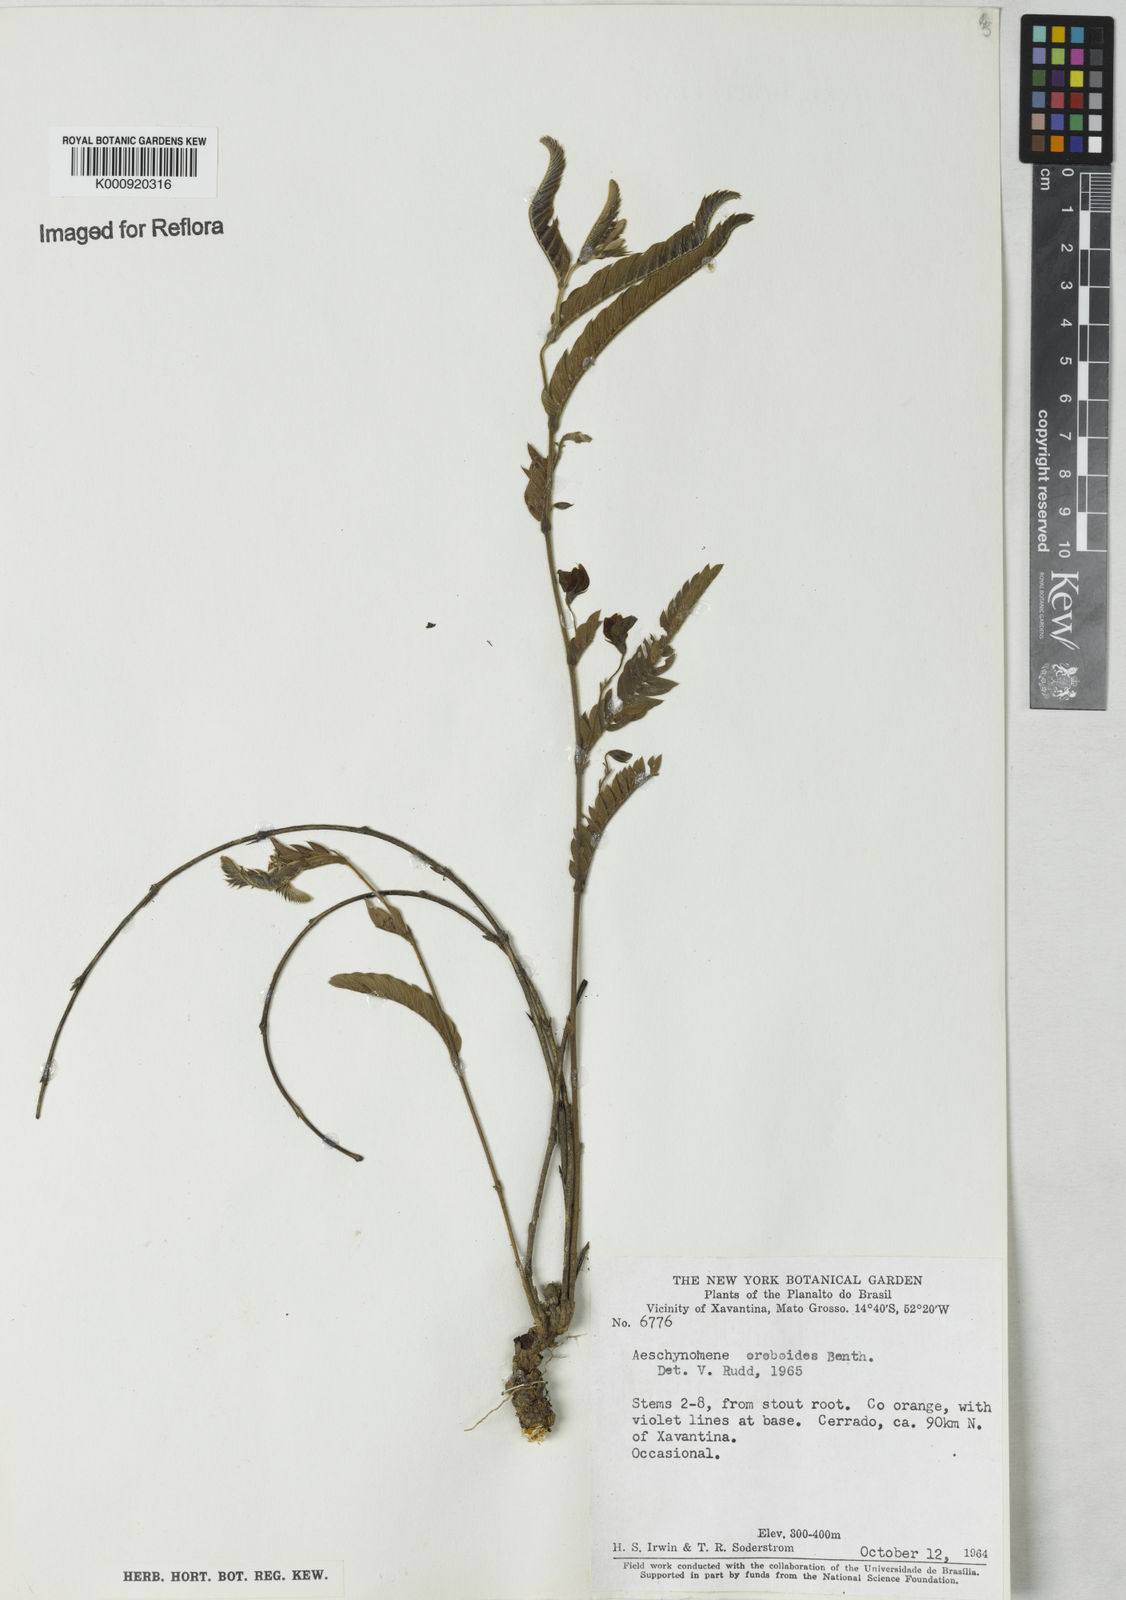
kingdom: Plantae
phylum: Tracheophyta
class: Magnoliopsida
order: Fabales
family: Fabaceae
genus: Ctenodon
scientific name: Ctenodon oroboides
